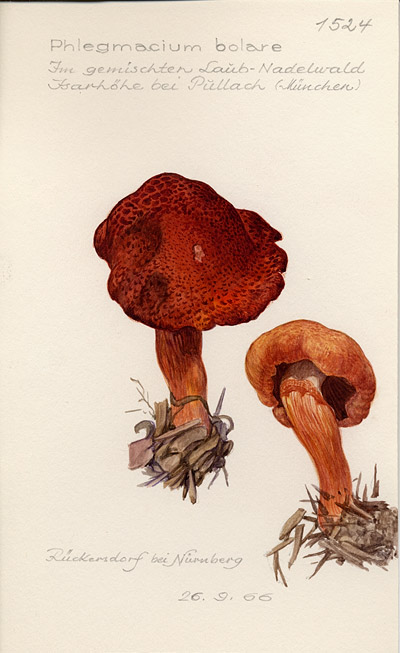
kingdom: Fungi
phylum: Basidiomycota
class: Agaricomycetes
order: Agaricales
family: Cortinariaceae
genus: Cortinarius
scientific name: Cortinarius bolaris
